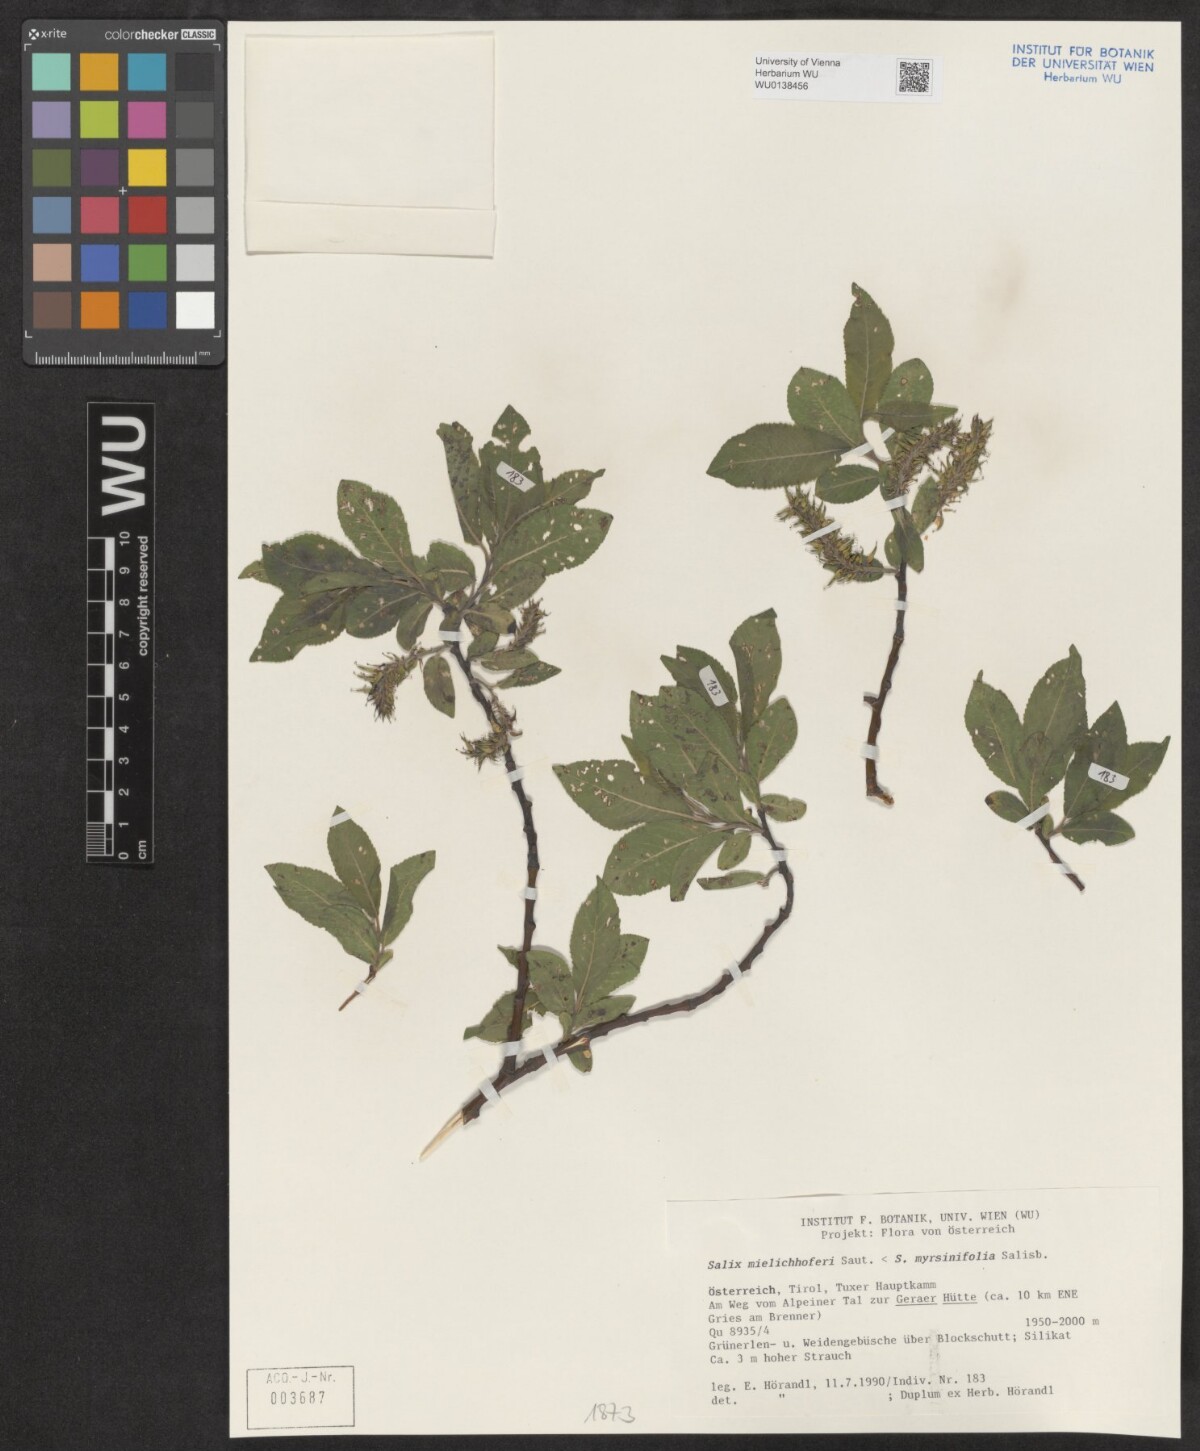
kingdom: Plantae
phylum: Tracheophyta
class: Magnoliopsida
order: Malpighiales
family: Salicaceae
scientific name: Salicaceae
